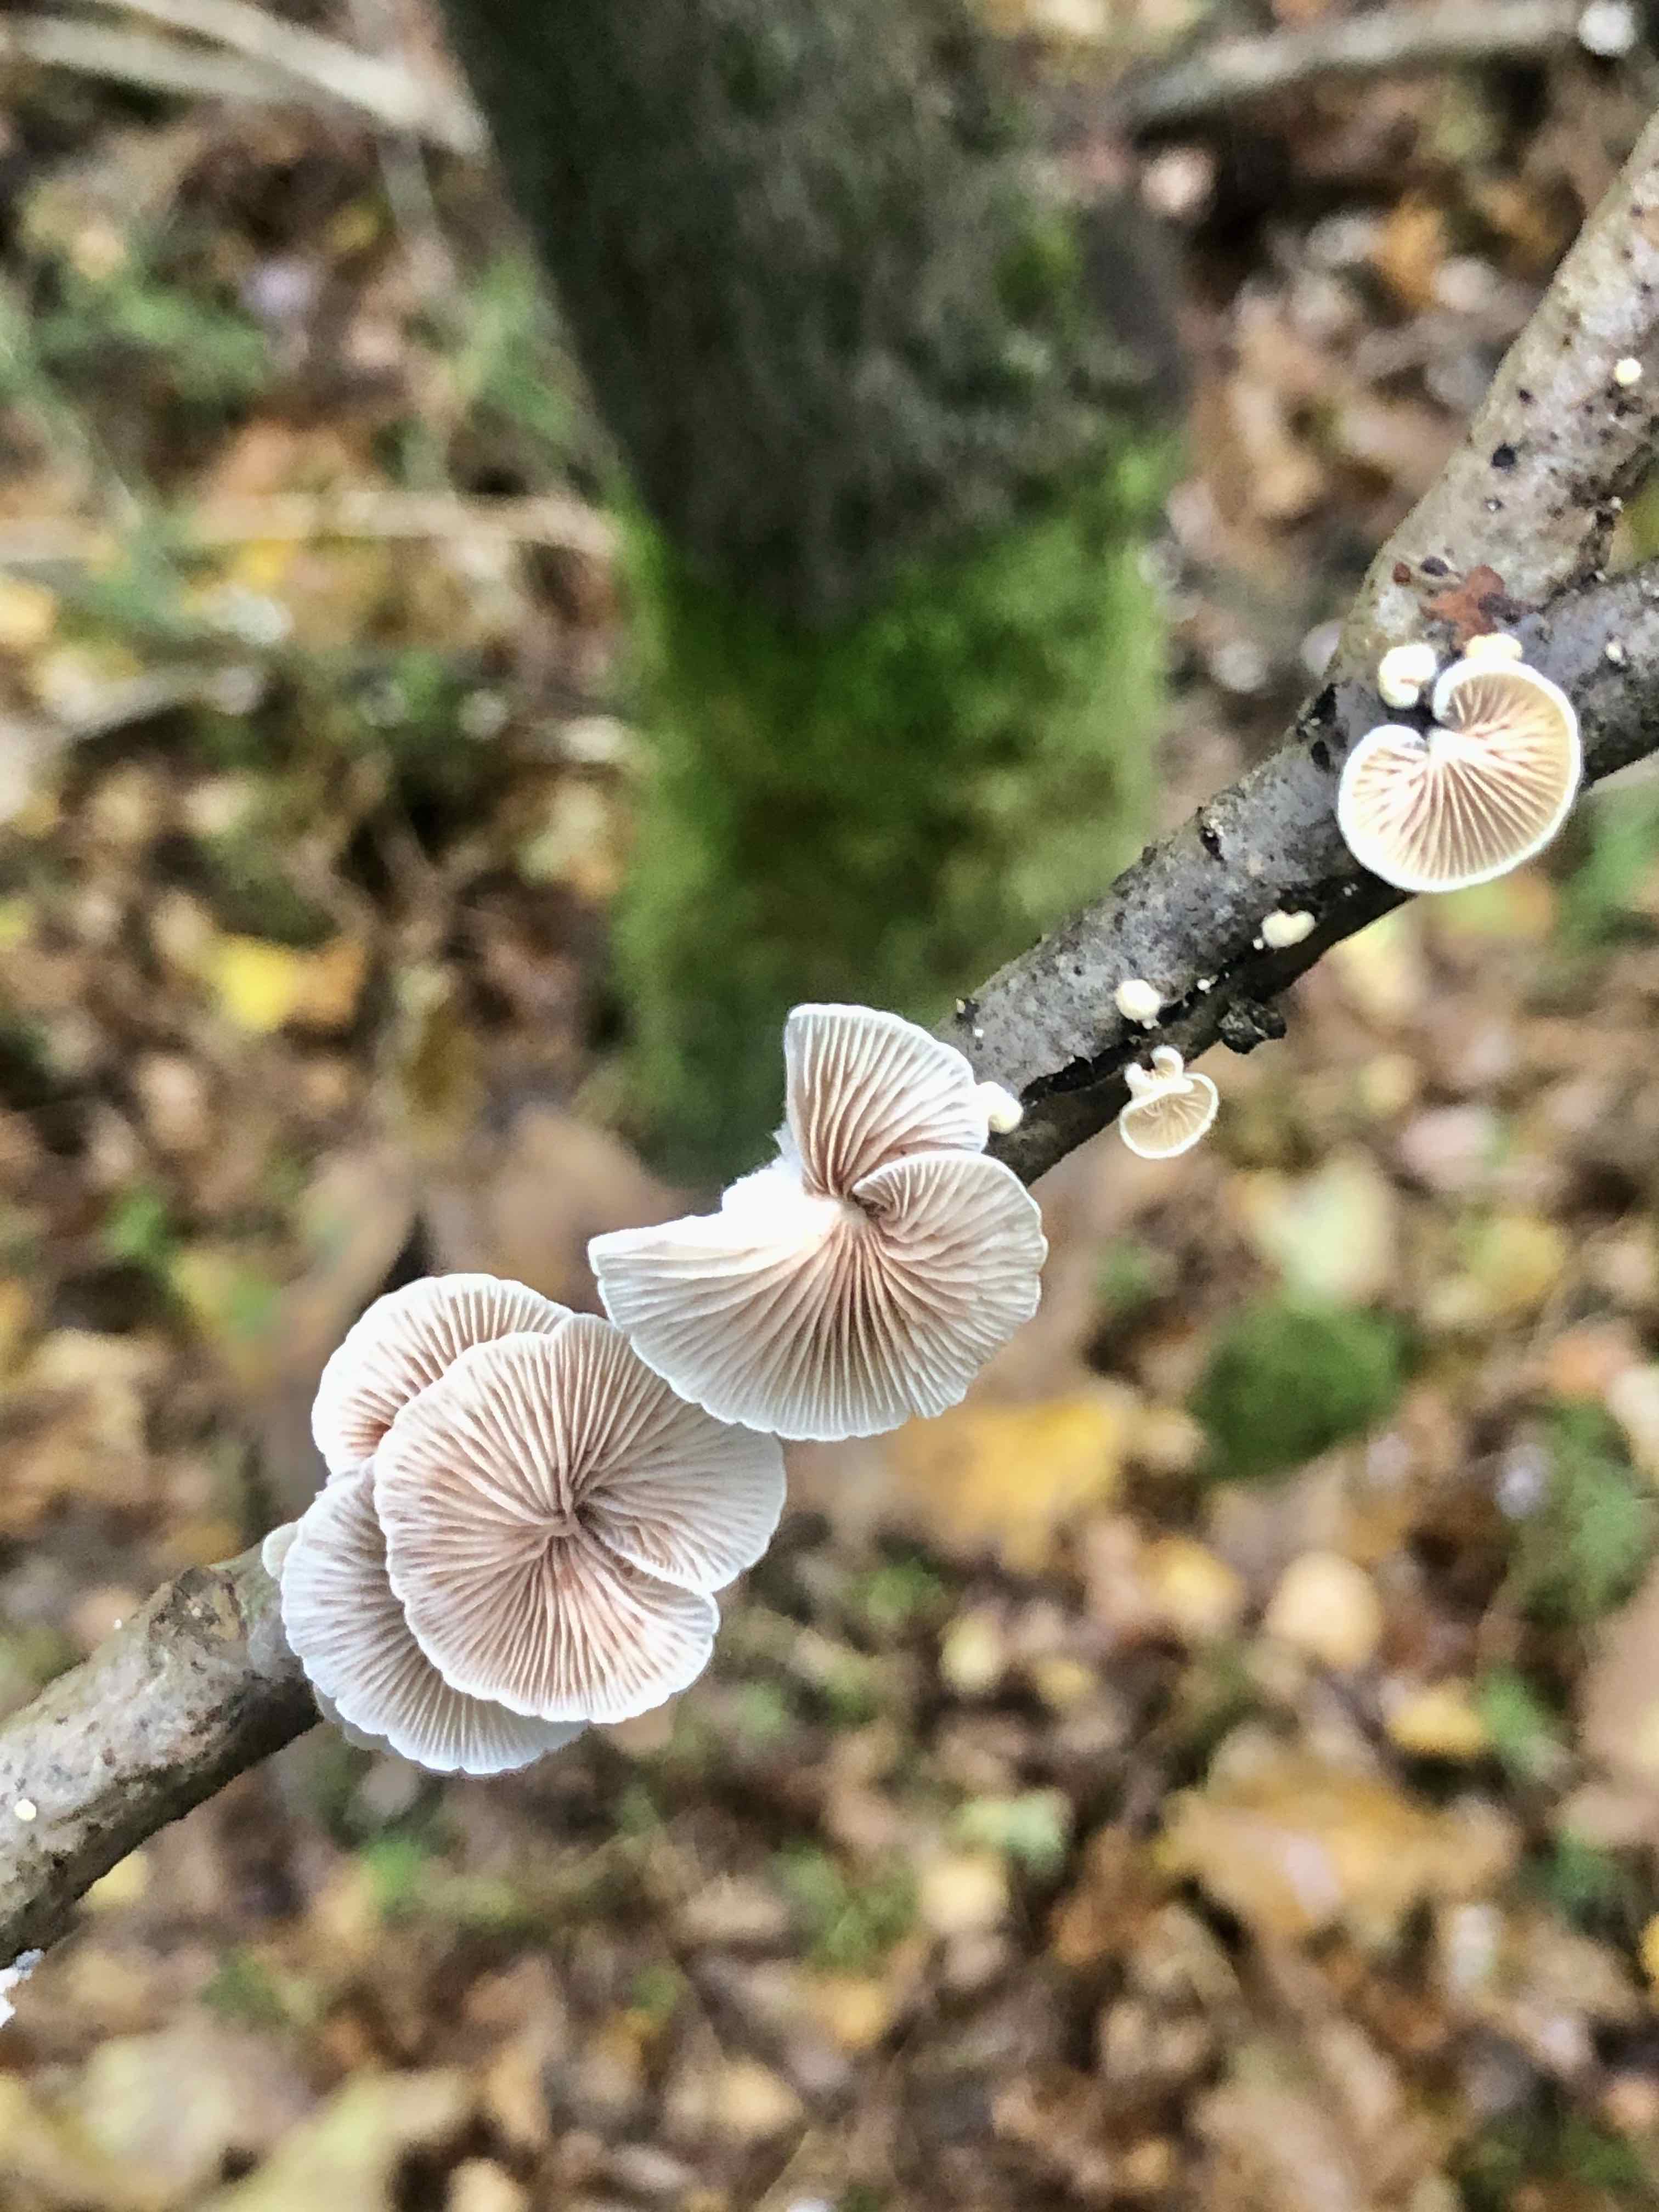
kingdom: Fungi
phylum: Basidiomycota
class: Agaricomycetes
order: Agaricales
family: Crepidotaceae
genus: Crepidotus
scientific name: Crepidotus
